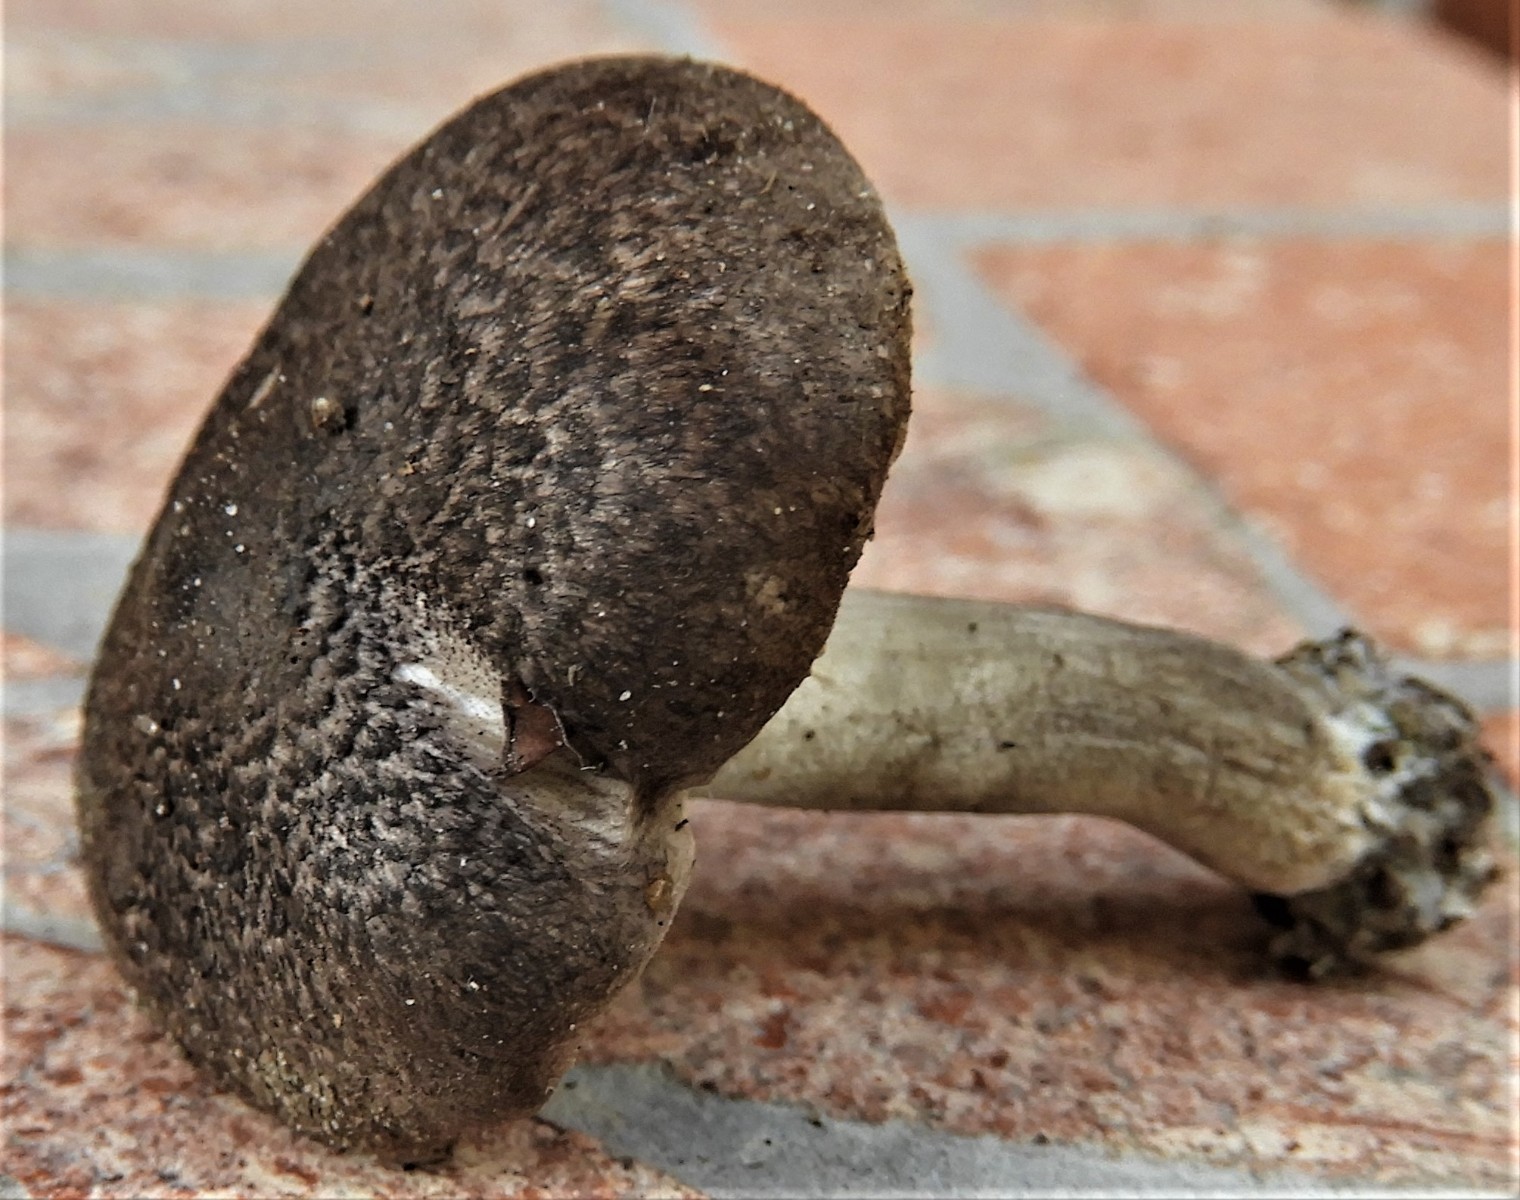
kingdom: Fungi
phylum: Basidiomycota
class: Agaricomycetes
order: Agaricales
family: Tricholomataceae
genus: Tricholoma
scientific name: Tricholoma scalpturatum
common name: gulplettet ridderhat
